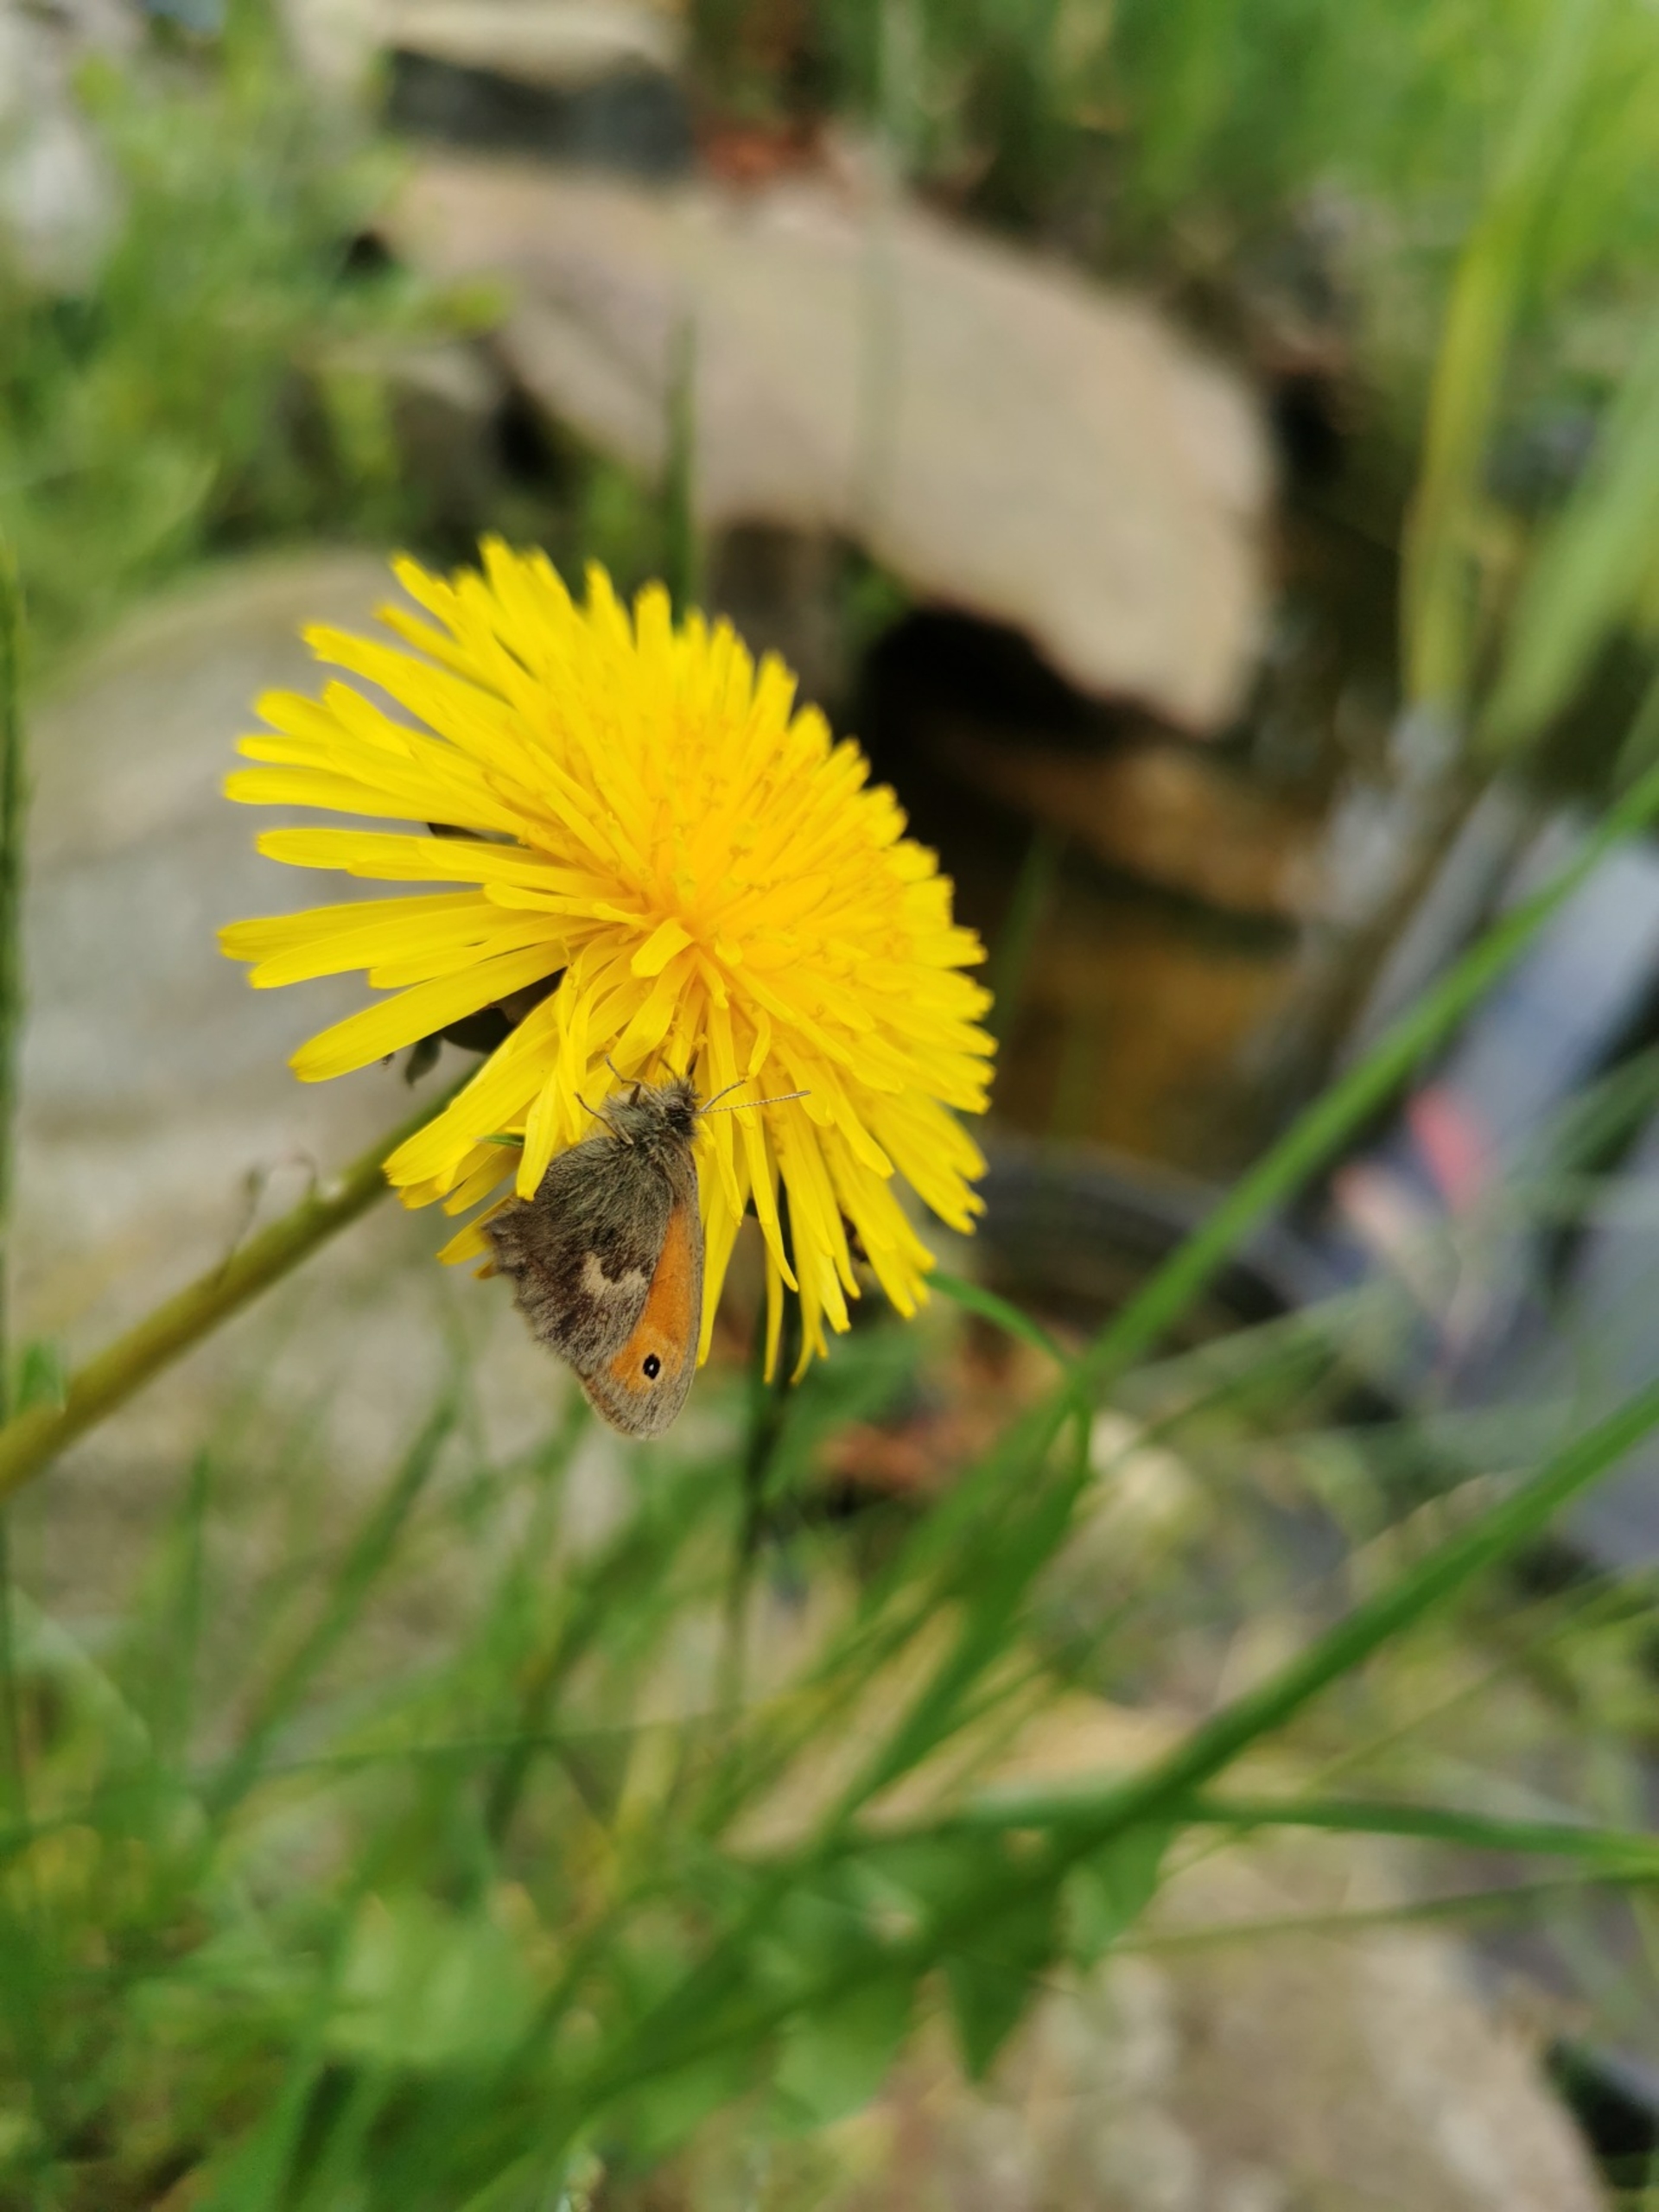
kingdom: Animalia
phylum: Arthropoda
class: Insecta
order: Lepidoptera
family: Nymphalidae
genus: Coenonympha
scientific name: Coenonympha pamphilus
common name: Okkergul randøje
